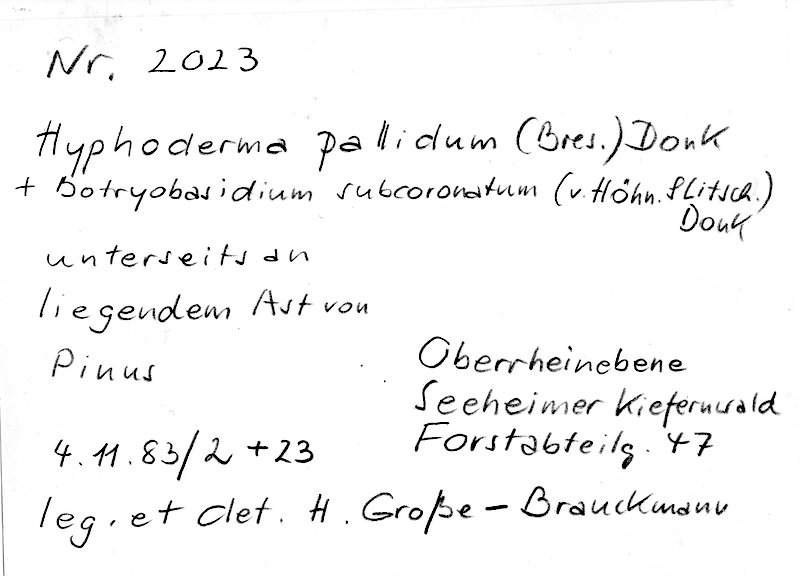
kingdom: Fungi
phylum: Basidiomycota
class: Agaricomycetes
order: Cantharellales
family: Botryobasidiaceae
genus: Botryobasidium
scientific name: Botryobasidium subcoronatum
